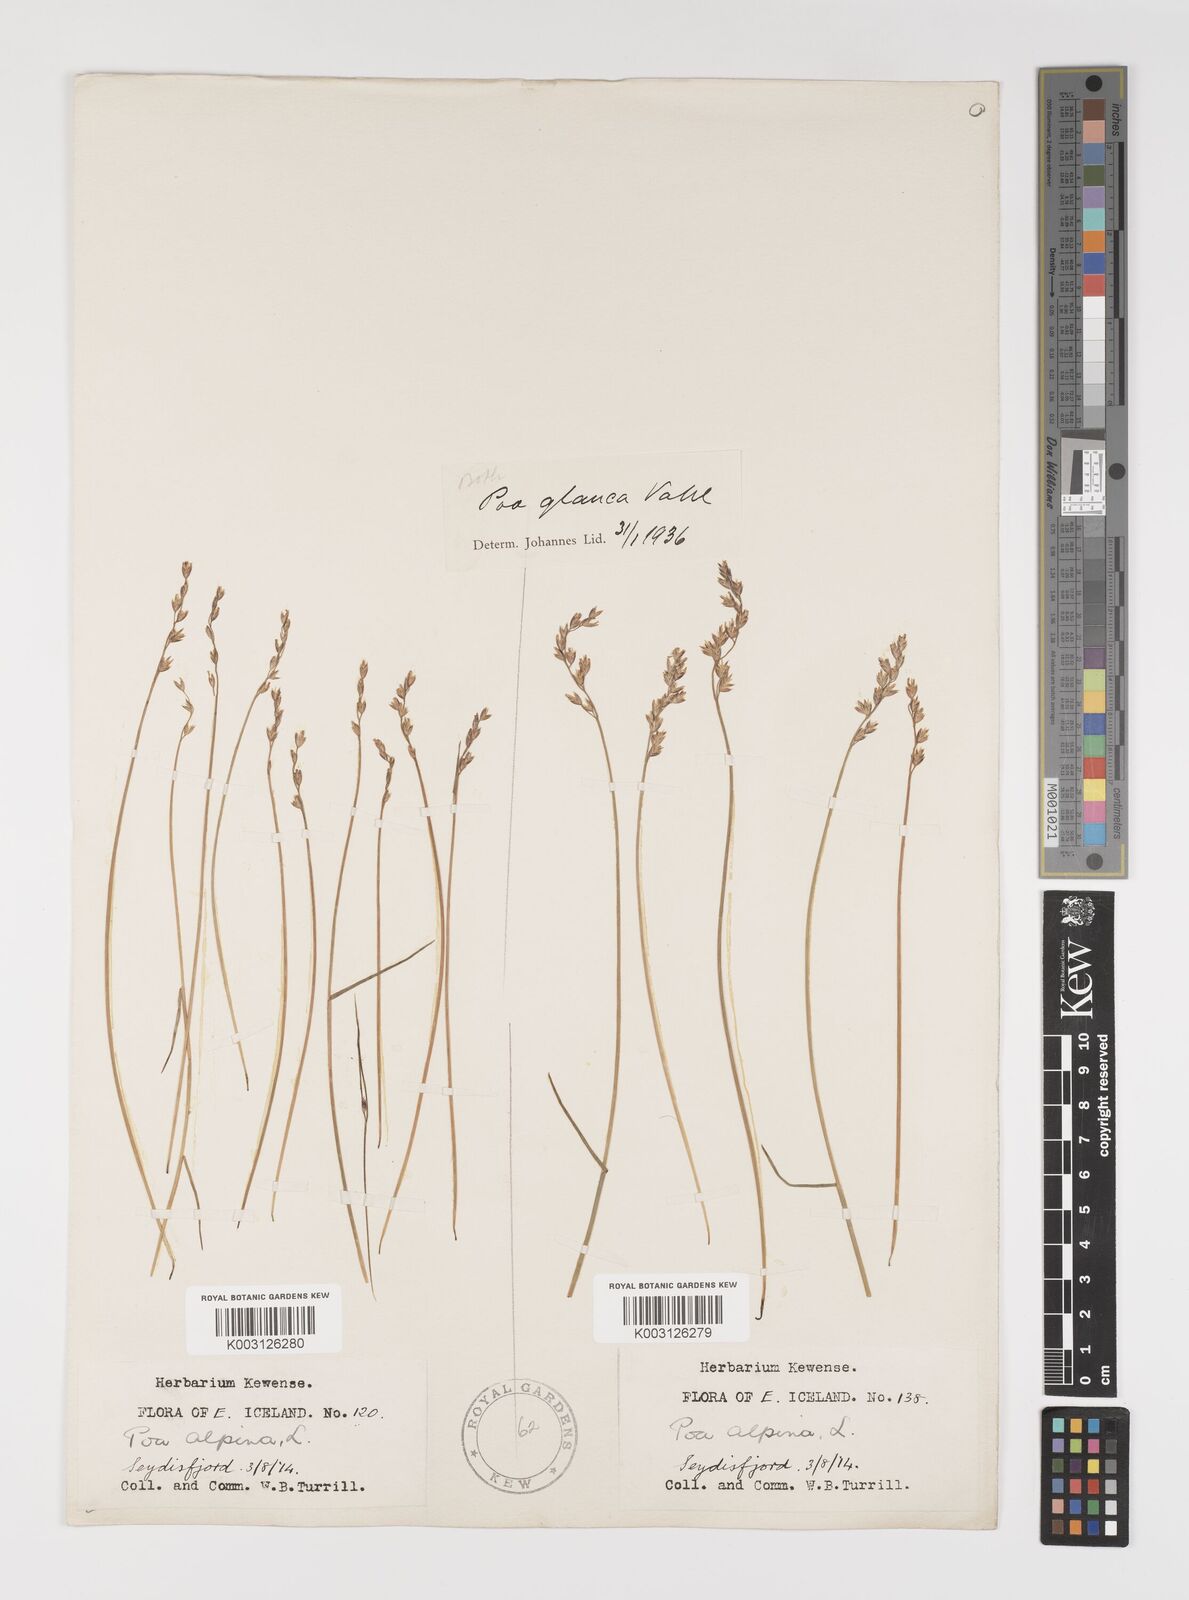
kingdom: Plantae
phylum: Tracheophyta
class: Liliopsida
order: Poales
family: Poaceae
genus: Poa
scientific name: Poa glauca
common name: Glaucous bluegrass
